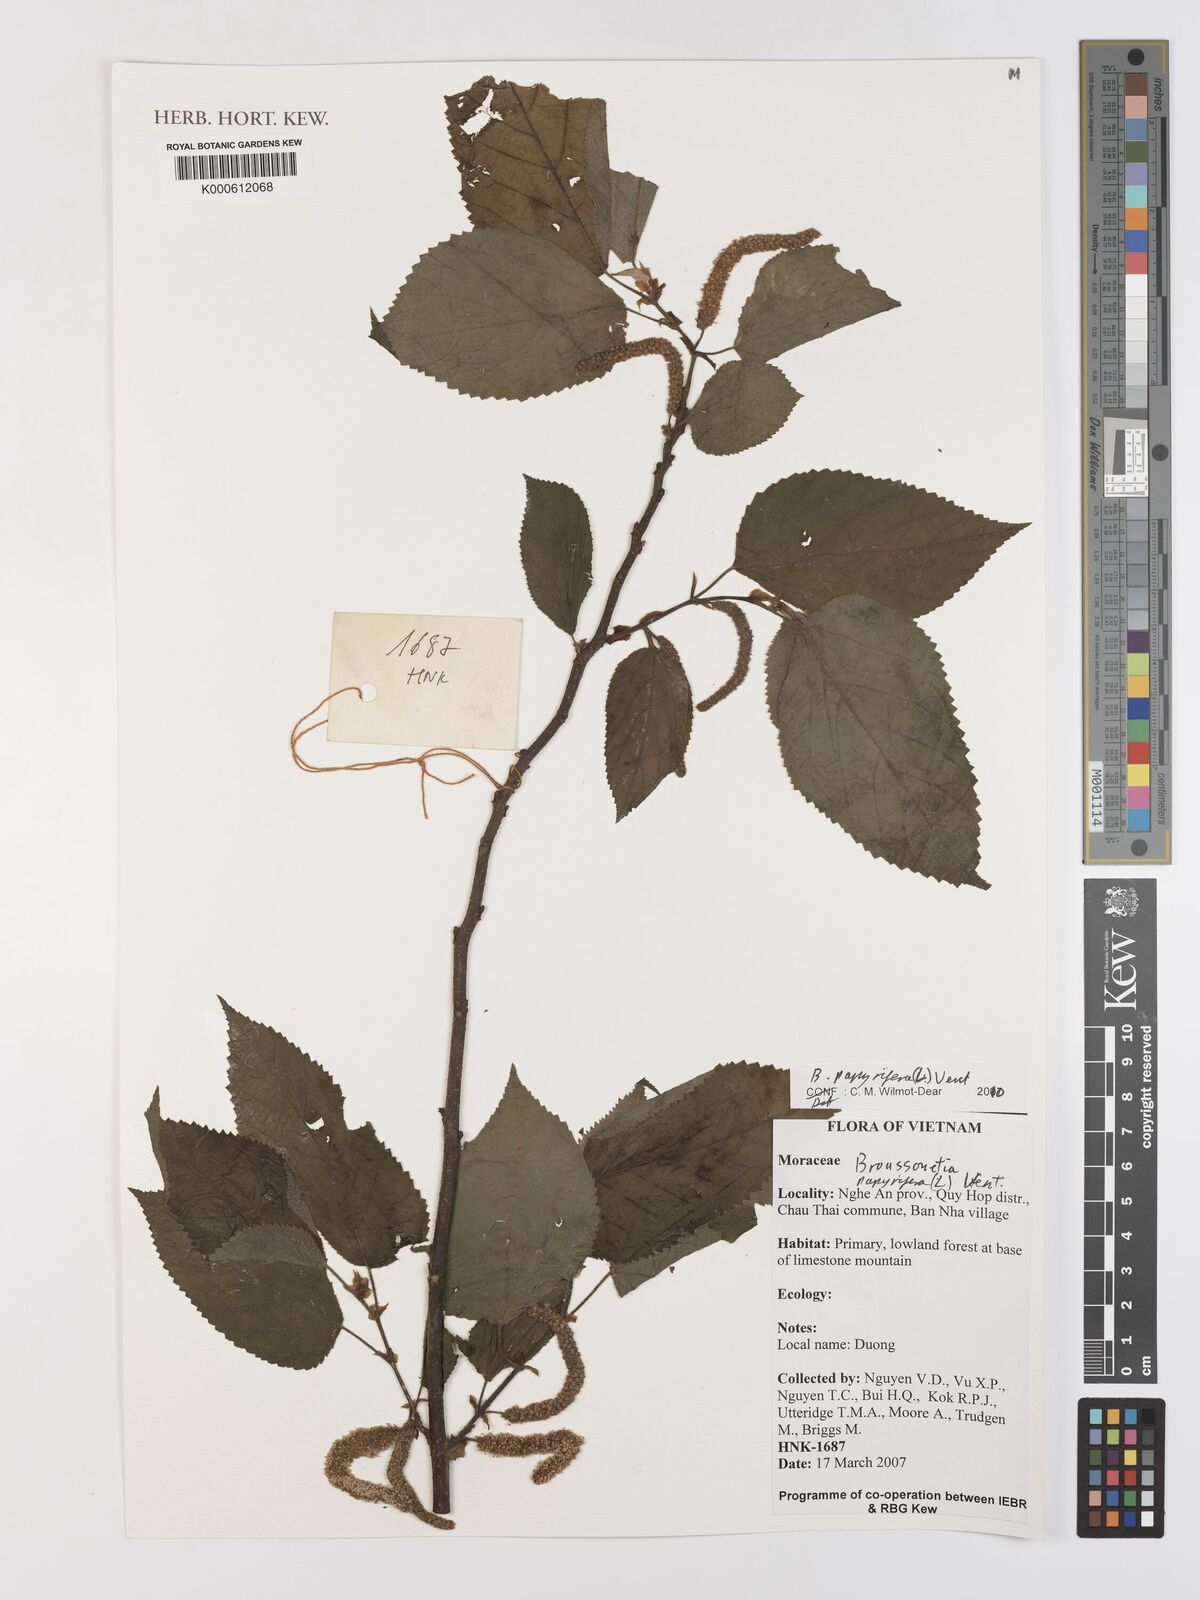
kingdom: Plantae
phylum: Tracheophyta
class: Magnoliopsida
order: Rosales
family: Moraceae
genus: Broussonetia
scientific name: Broussonetia papyrifera
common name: Paper mulberry
